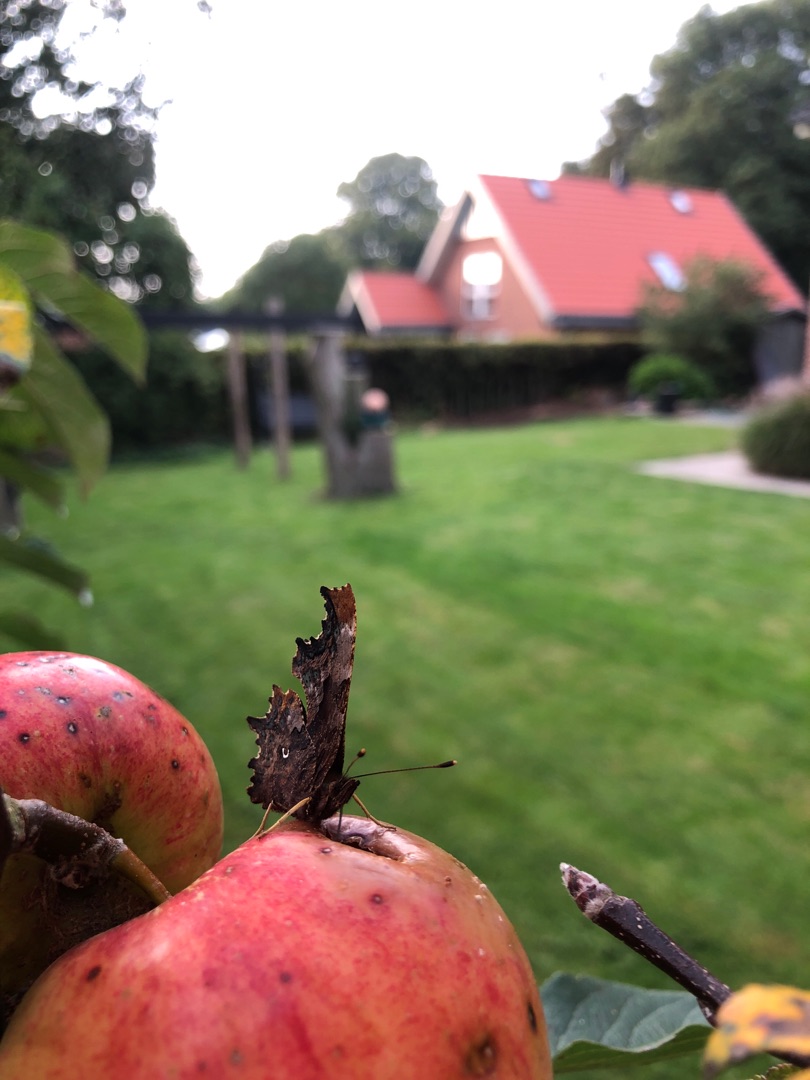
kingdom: Animalia
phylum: Arthropoda
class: Insecta
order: Lepidoptera
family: Nymphalidae
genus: Polygonia
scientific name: Polygonia c-album
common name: Det hvide C
